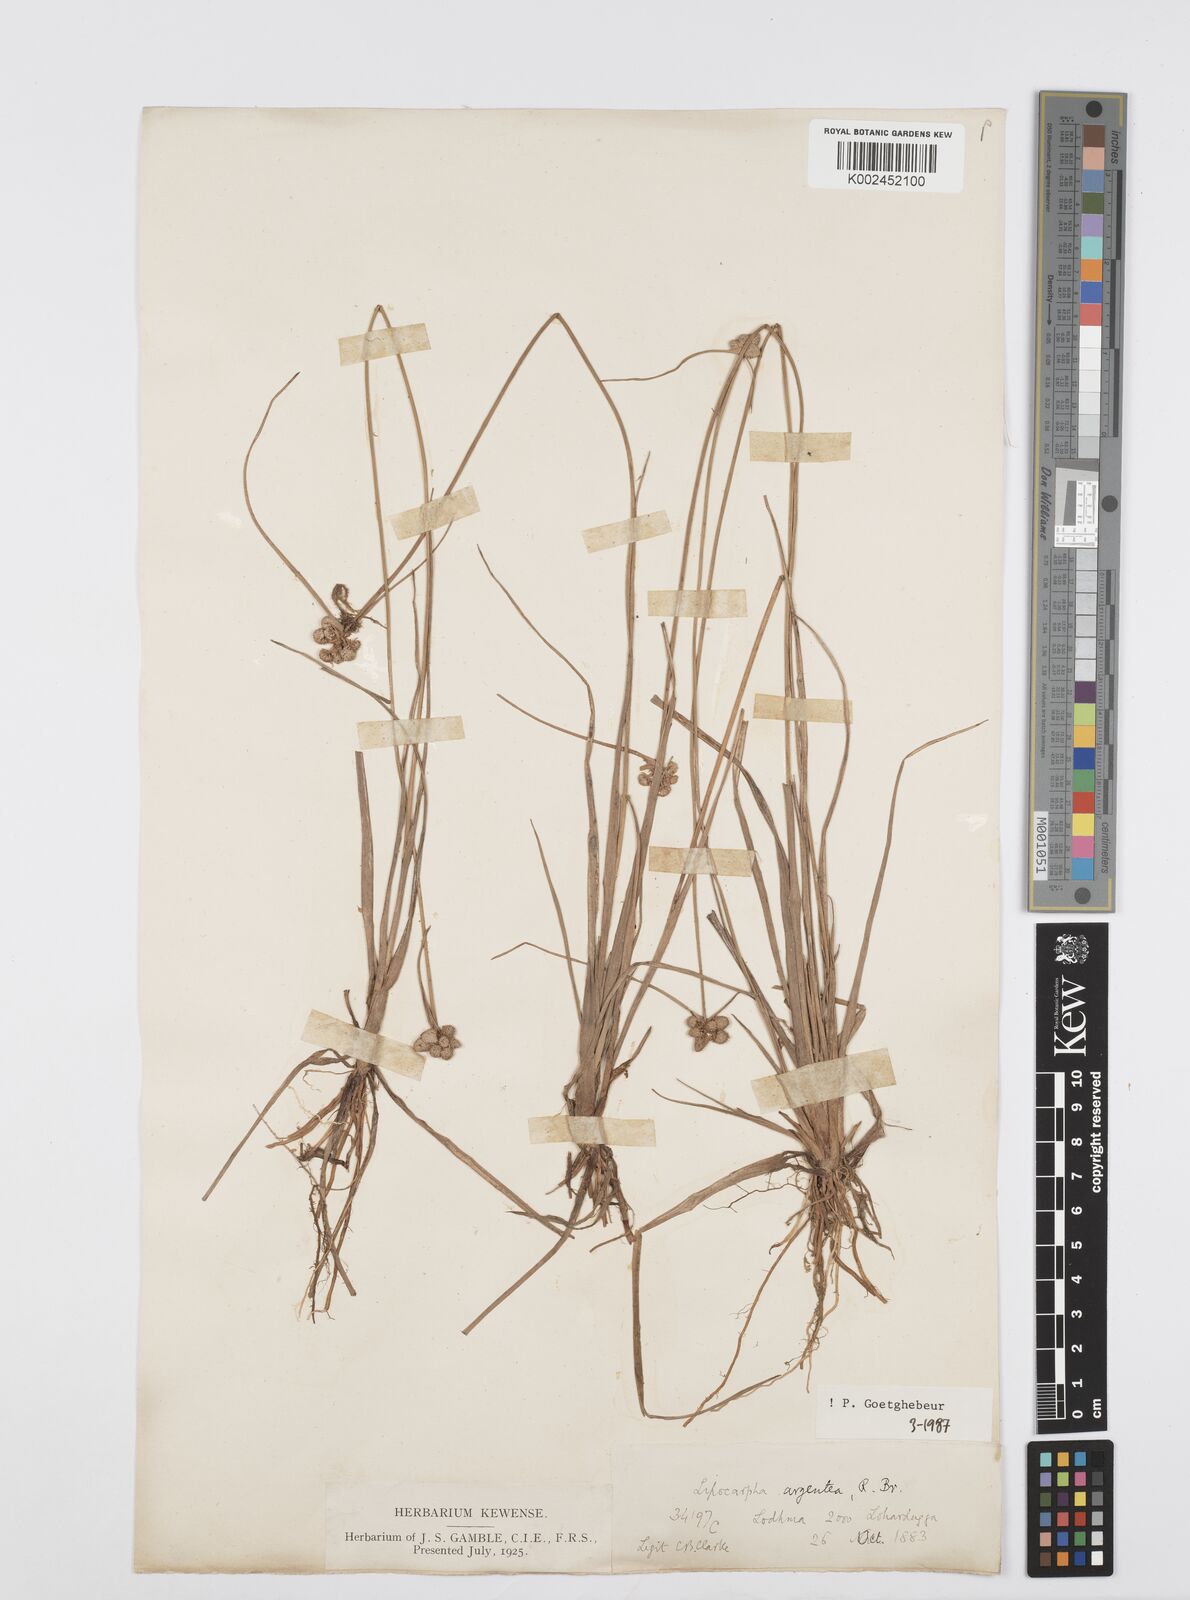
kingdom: Plantae
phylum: Tracheophyta
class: Liliopsida
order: Poales
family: Cyperaceae
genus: Cyperus
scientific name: Cyperus
